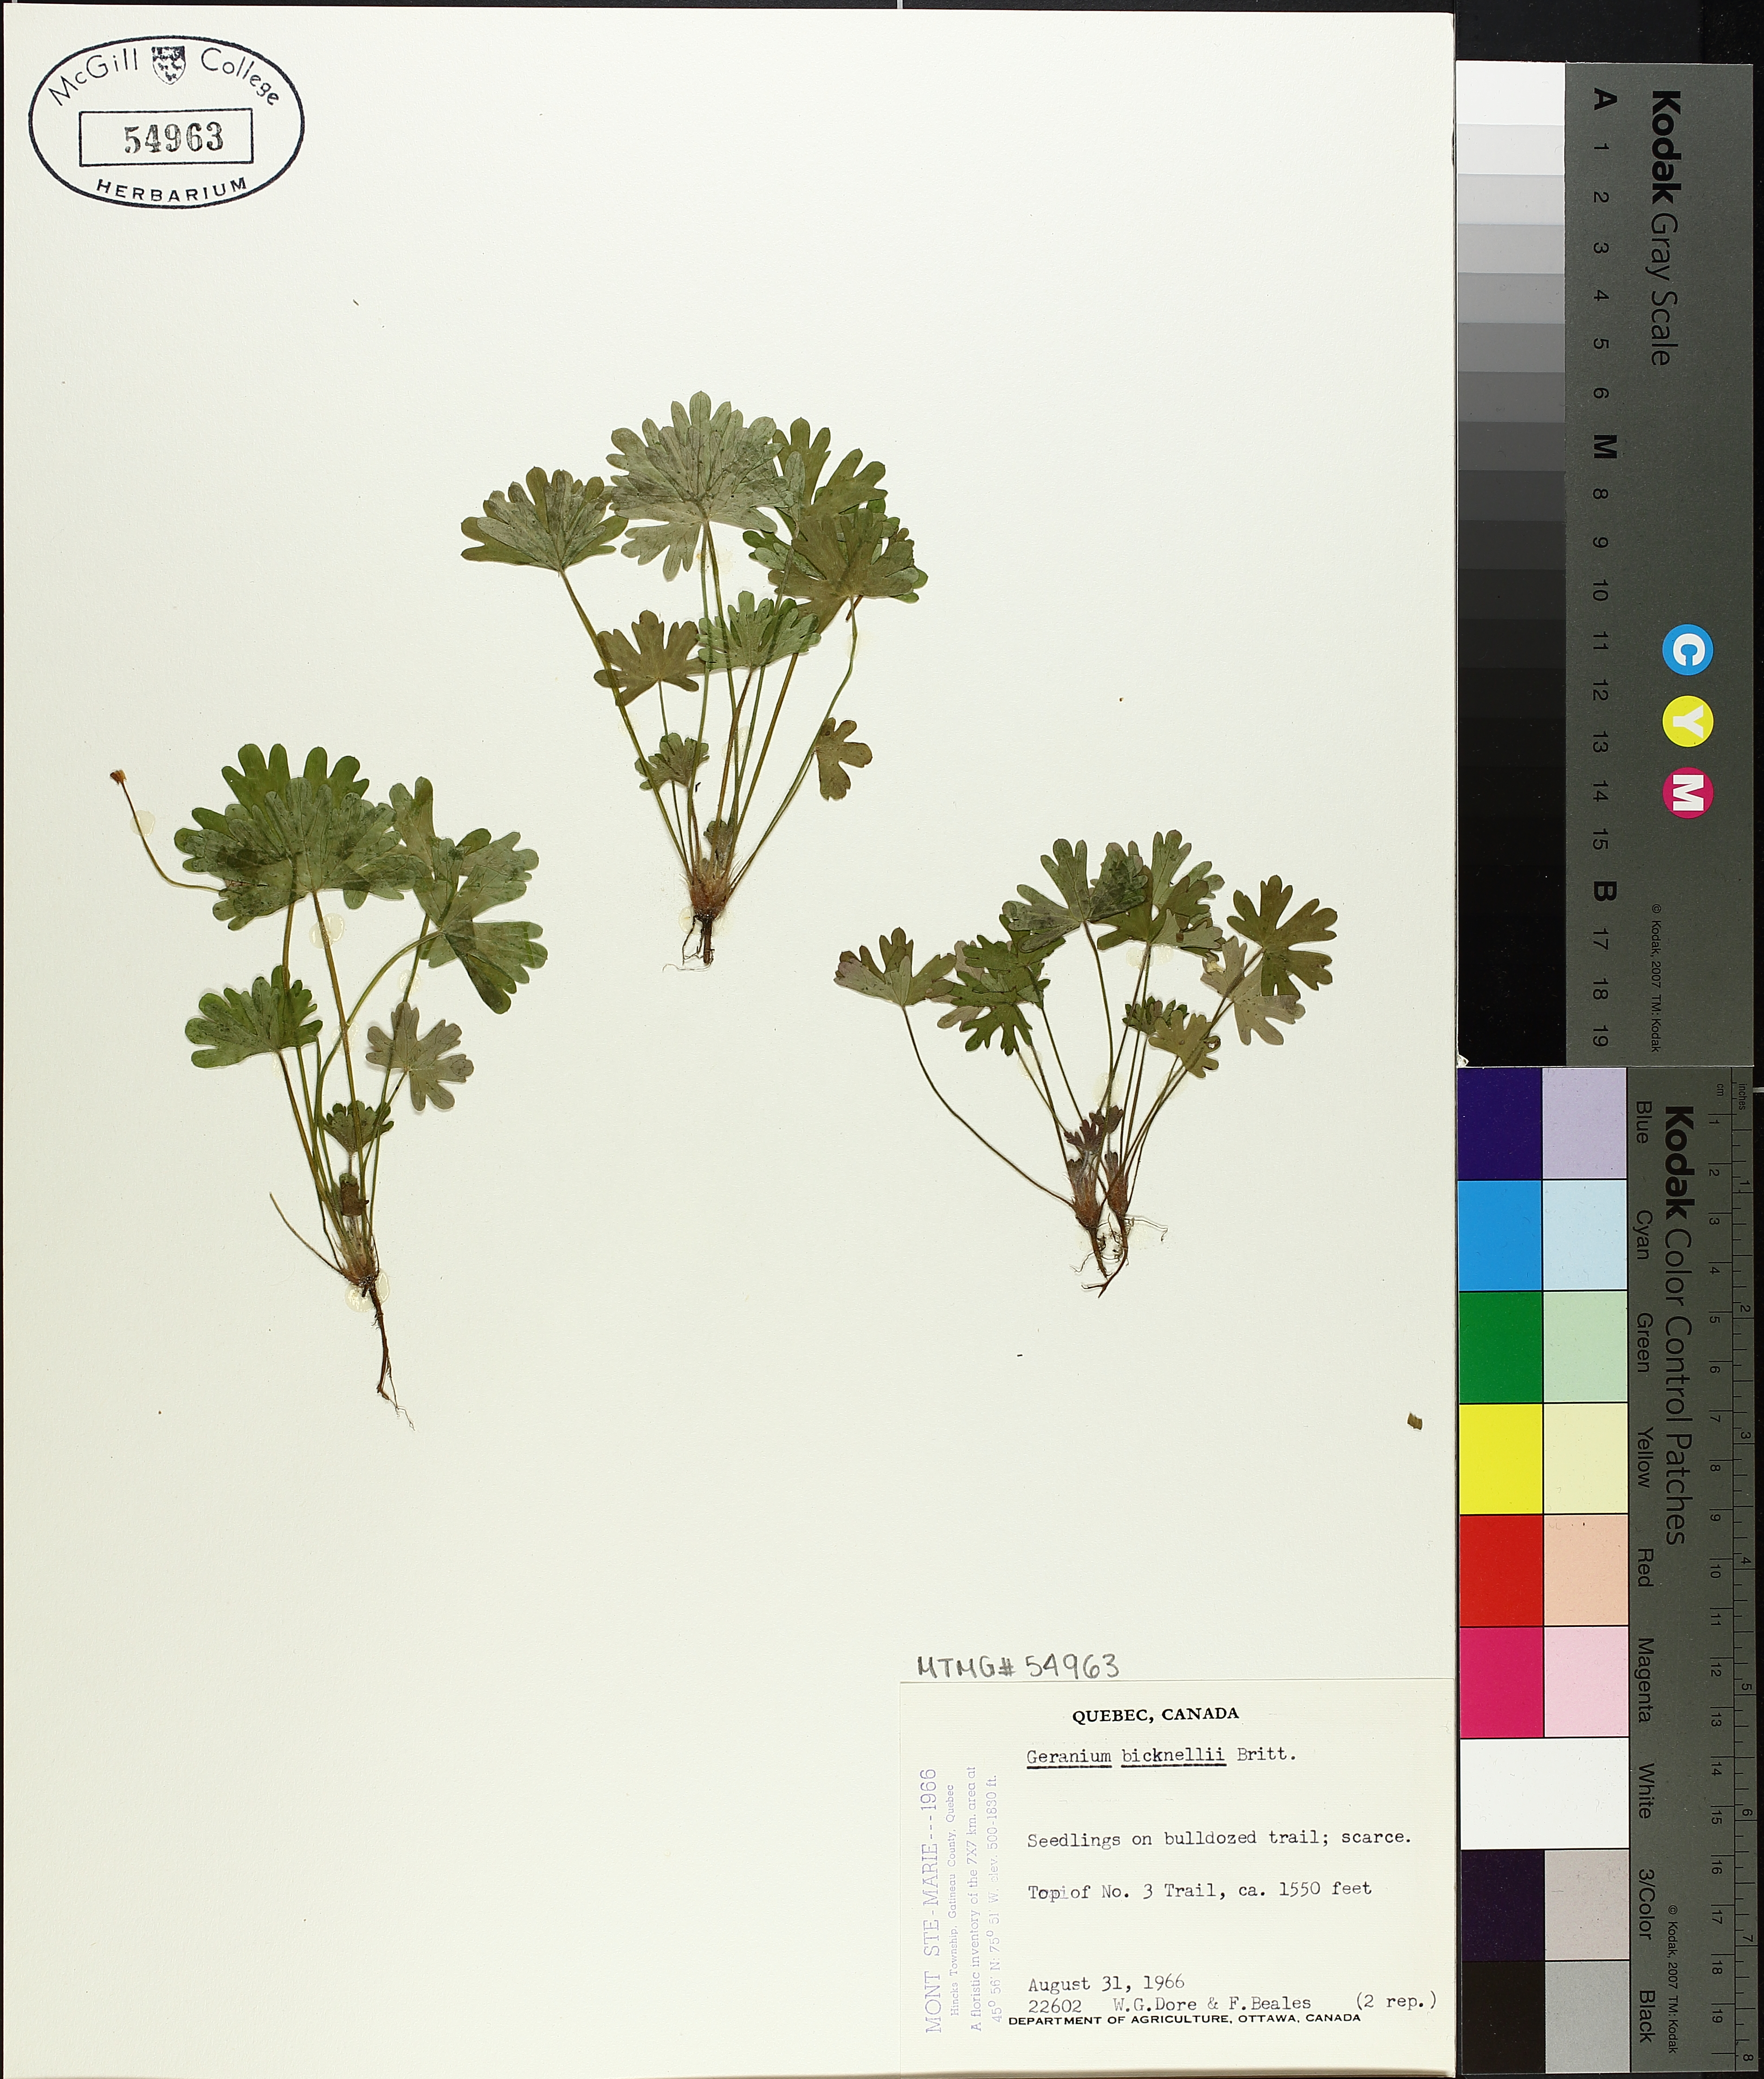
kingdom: Plantae
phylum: Tracheophyta
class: Magnoliopsida
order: Geraniales
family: Geraniaceae
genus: Geranium
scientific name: Geranium bicknellii
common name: Bicknell's cranesbill
